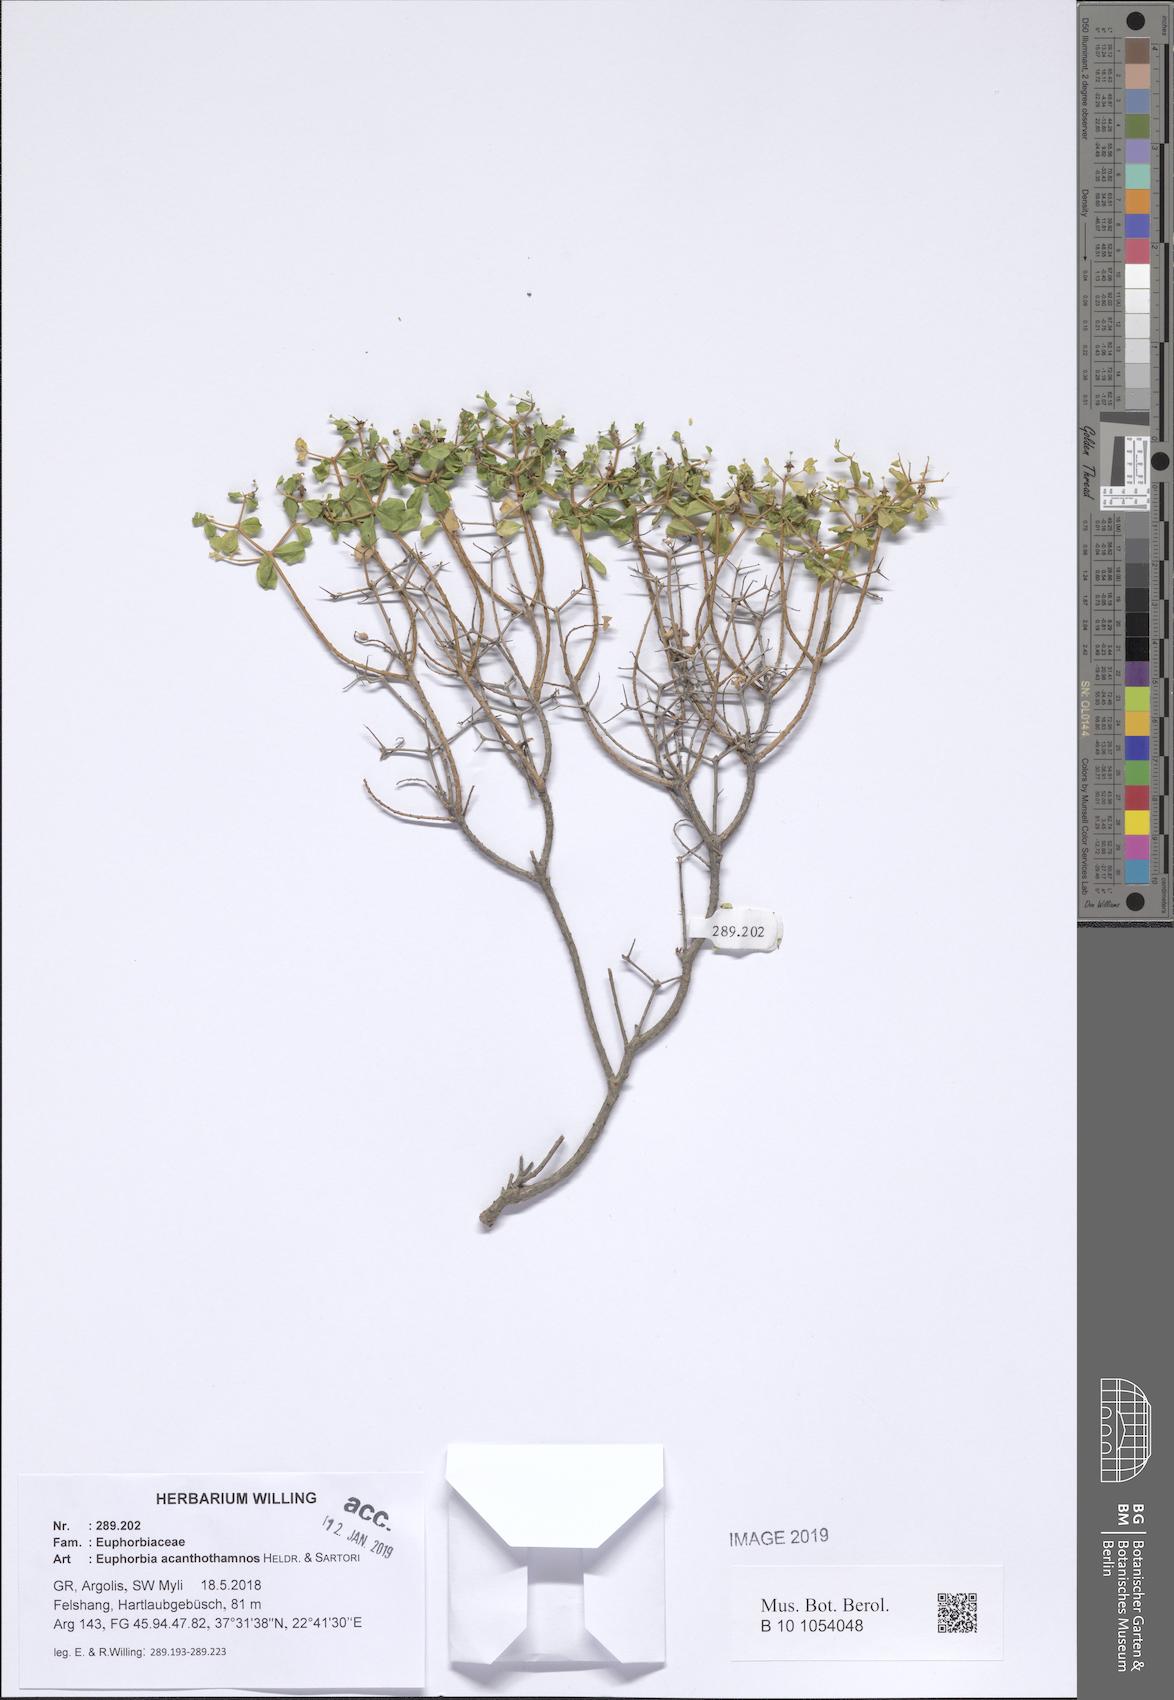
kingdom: Plantae
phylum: Tracheophyta
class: Magnoliopsida
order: Malpighiales
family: Euphorbiaceae
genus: Euphorbia
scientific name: Euphorbia acanthothamnos
